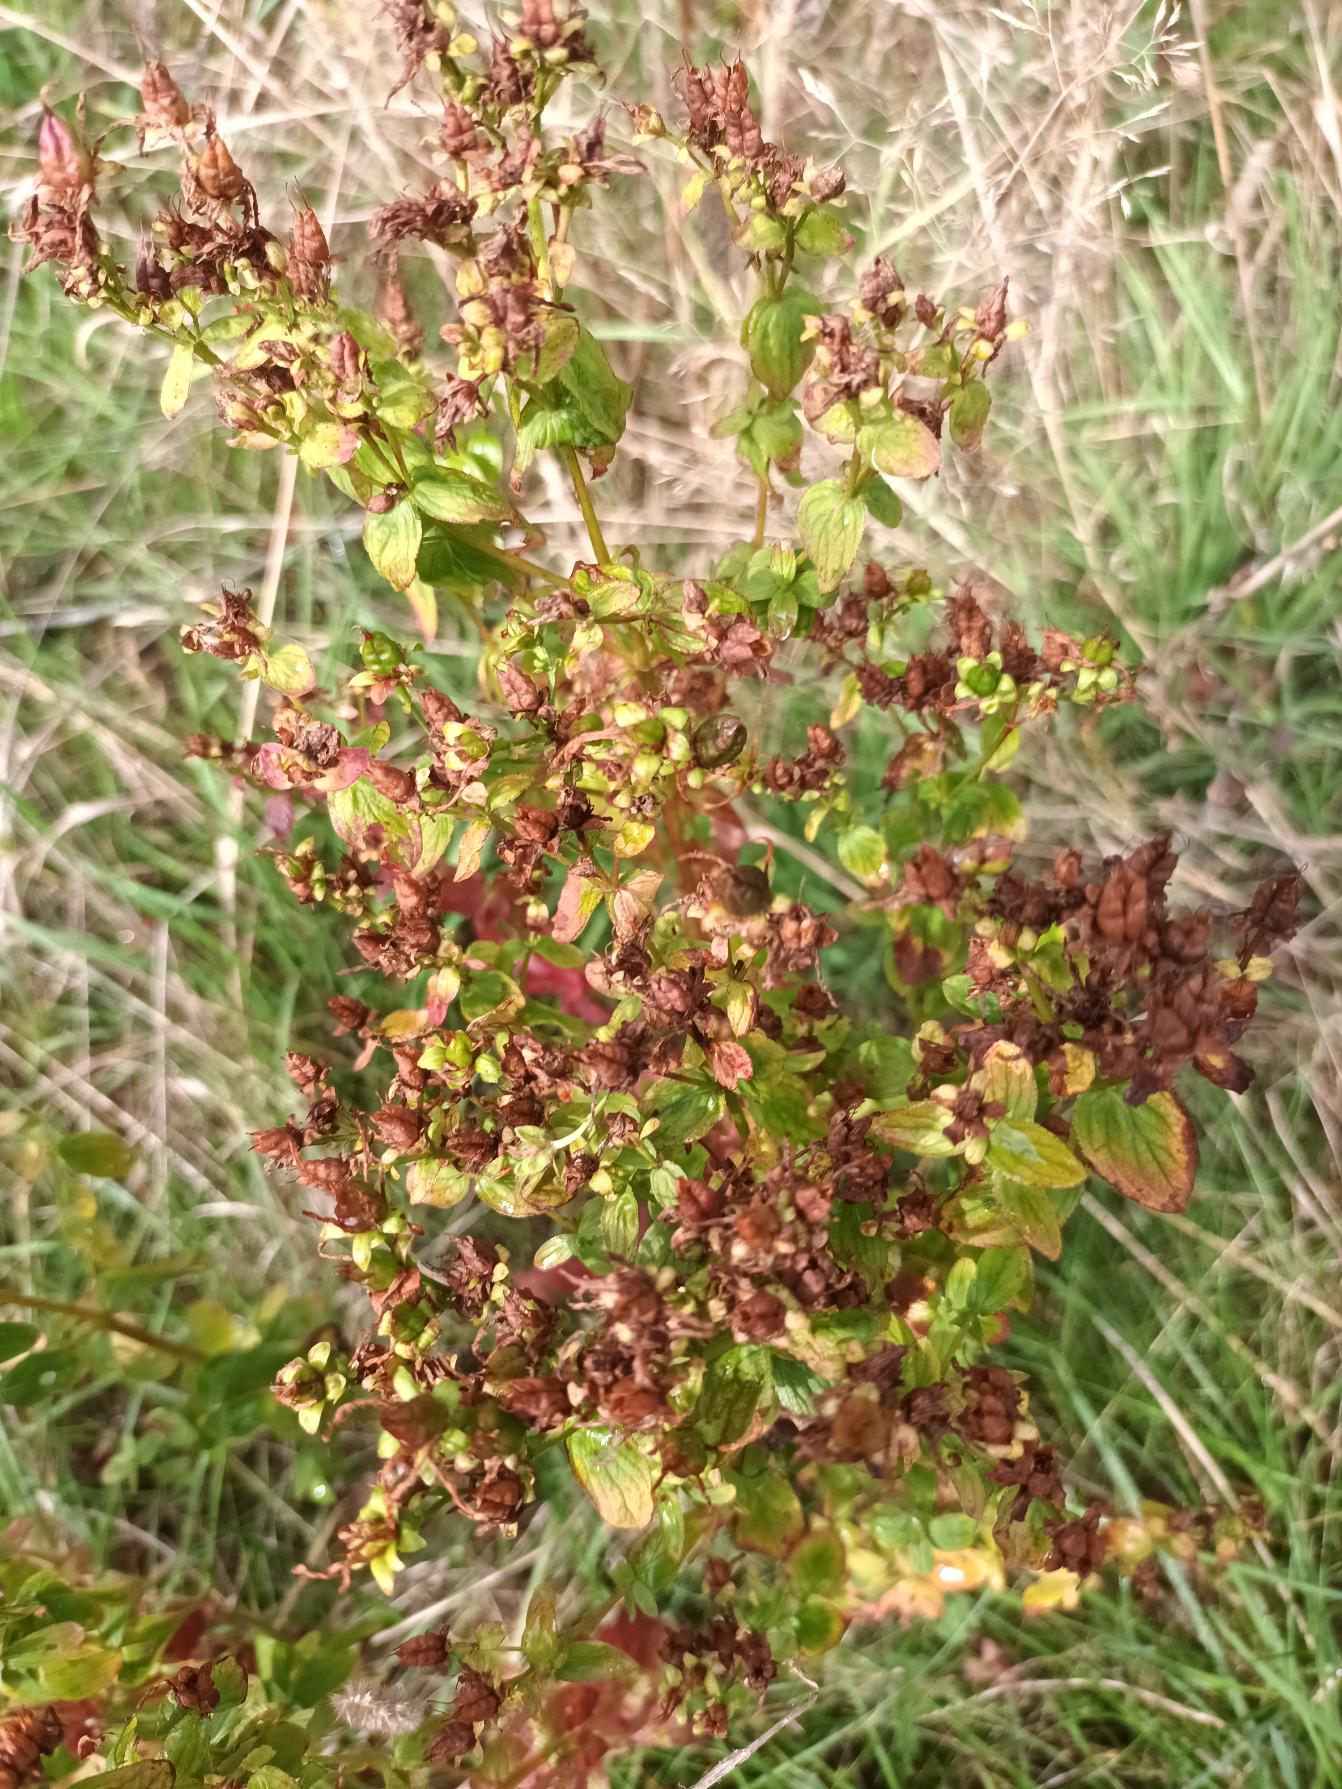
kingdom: Plantae
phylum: Tracheophyta
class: Magnoliopsida
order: Malpighiales
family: Hypericaceae
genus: Hypericum
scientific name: Hypericum maculatum
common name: Kantet perikon
